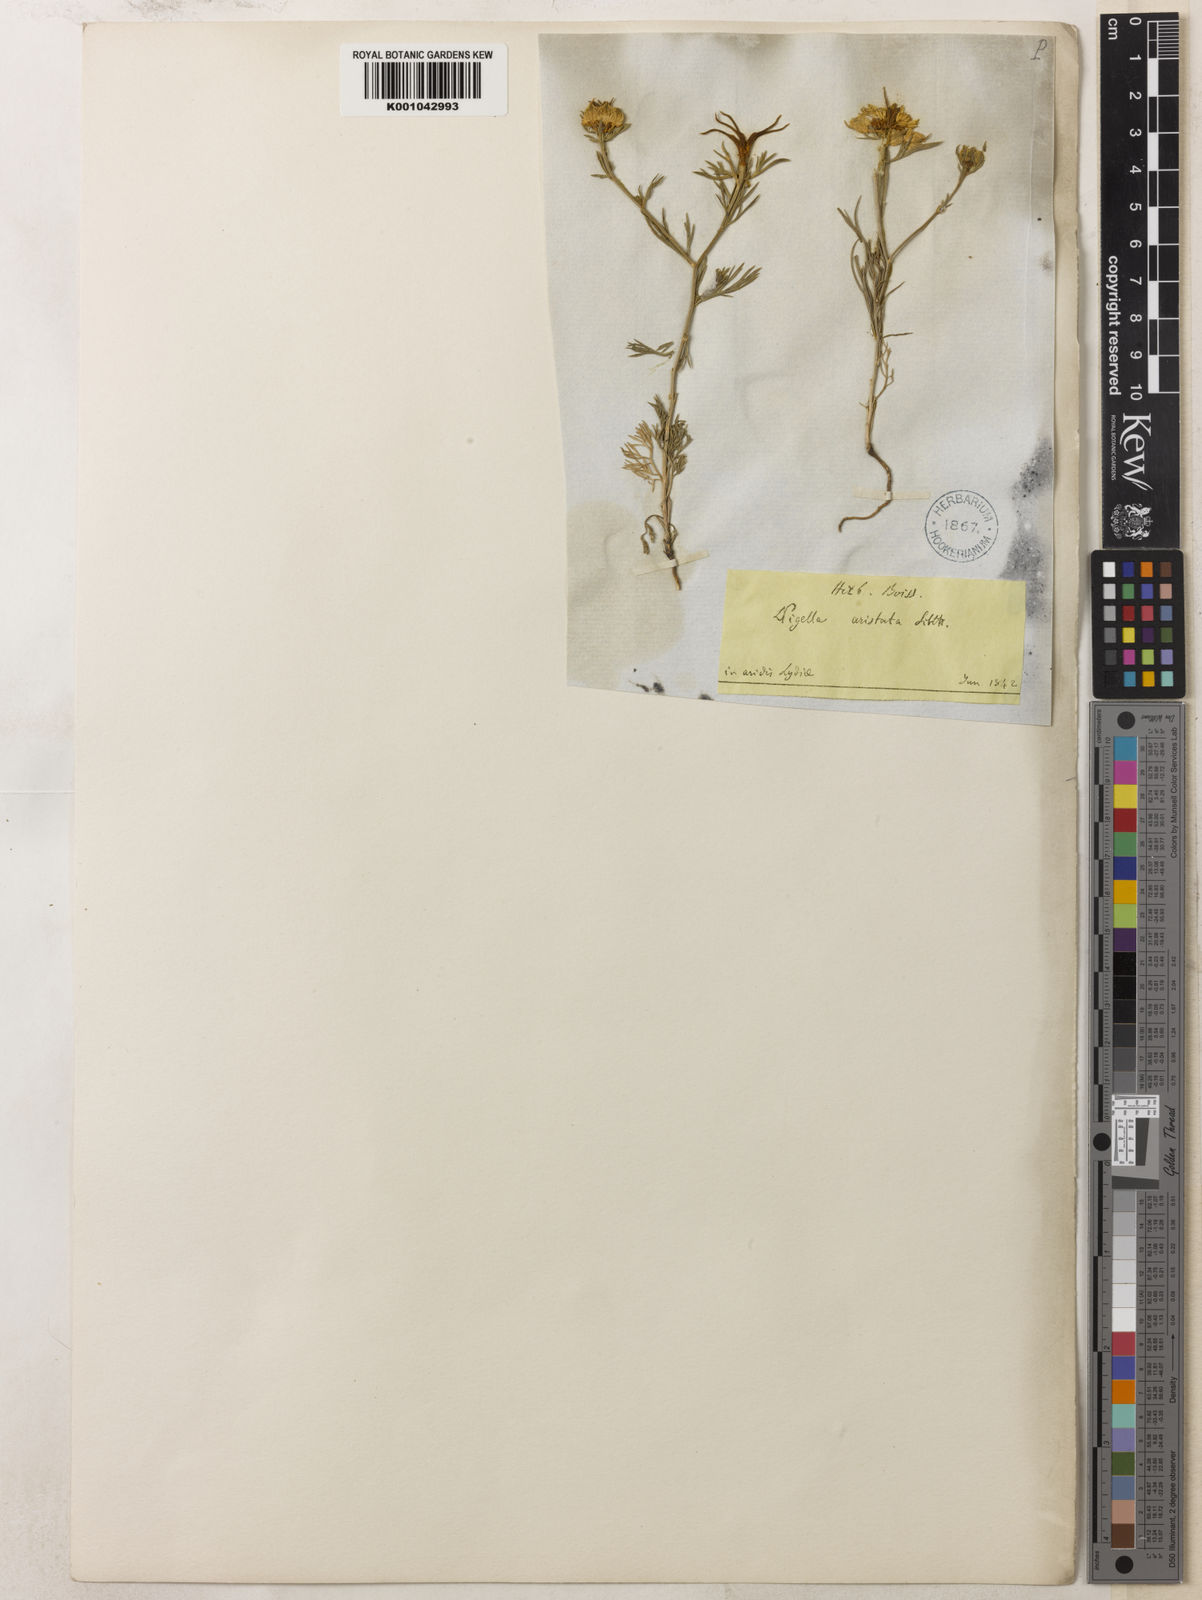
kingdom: Plantae
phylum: Tracheophyta
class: Magnoliopsida
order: Ranunculales
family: Ranunculaceae
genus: Nigella
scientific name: Nigella arvensis
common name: Wild fennel-flower
